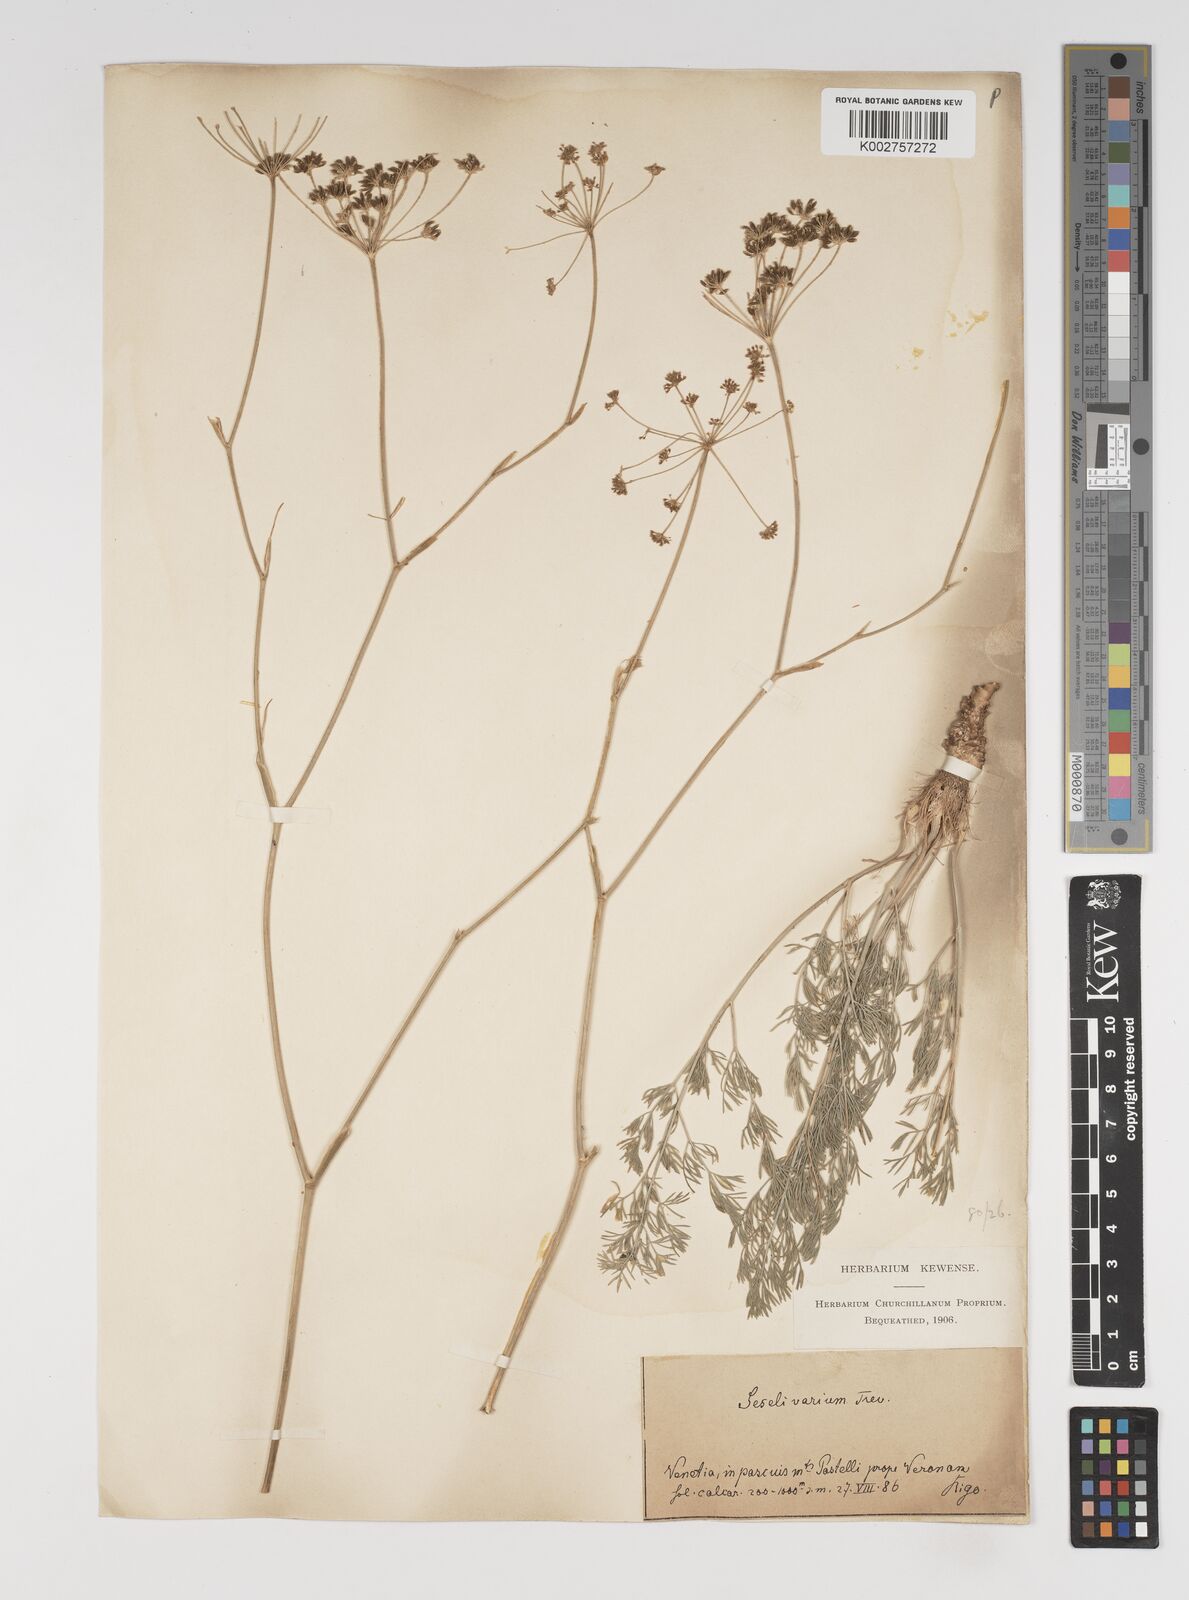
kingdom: Plantae
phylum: Tracheophyta
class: Magnoliopsida
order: Apiales
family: Apiaceae
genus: Seseli
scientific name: Seseli pallasii
